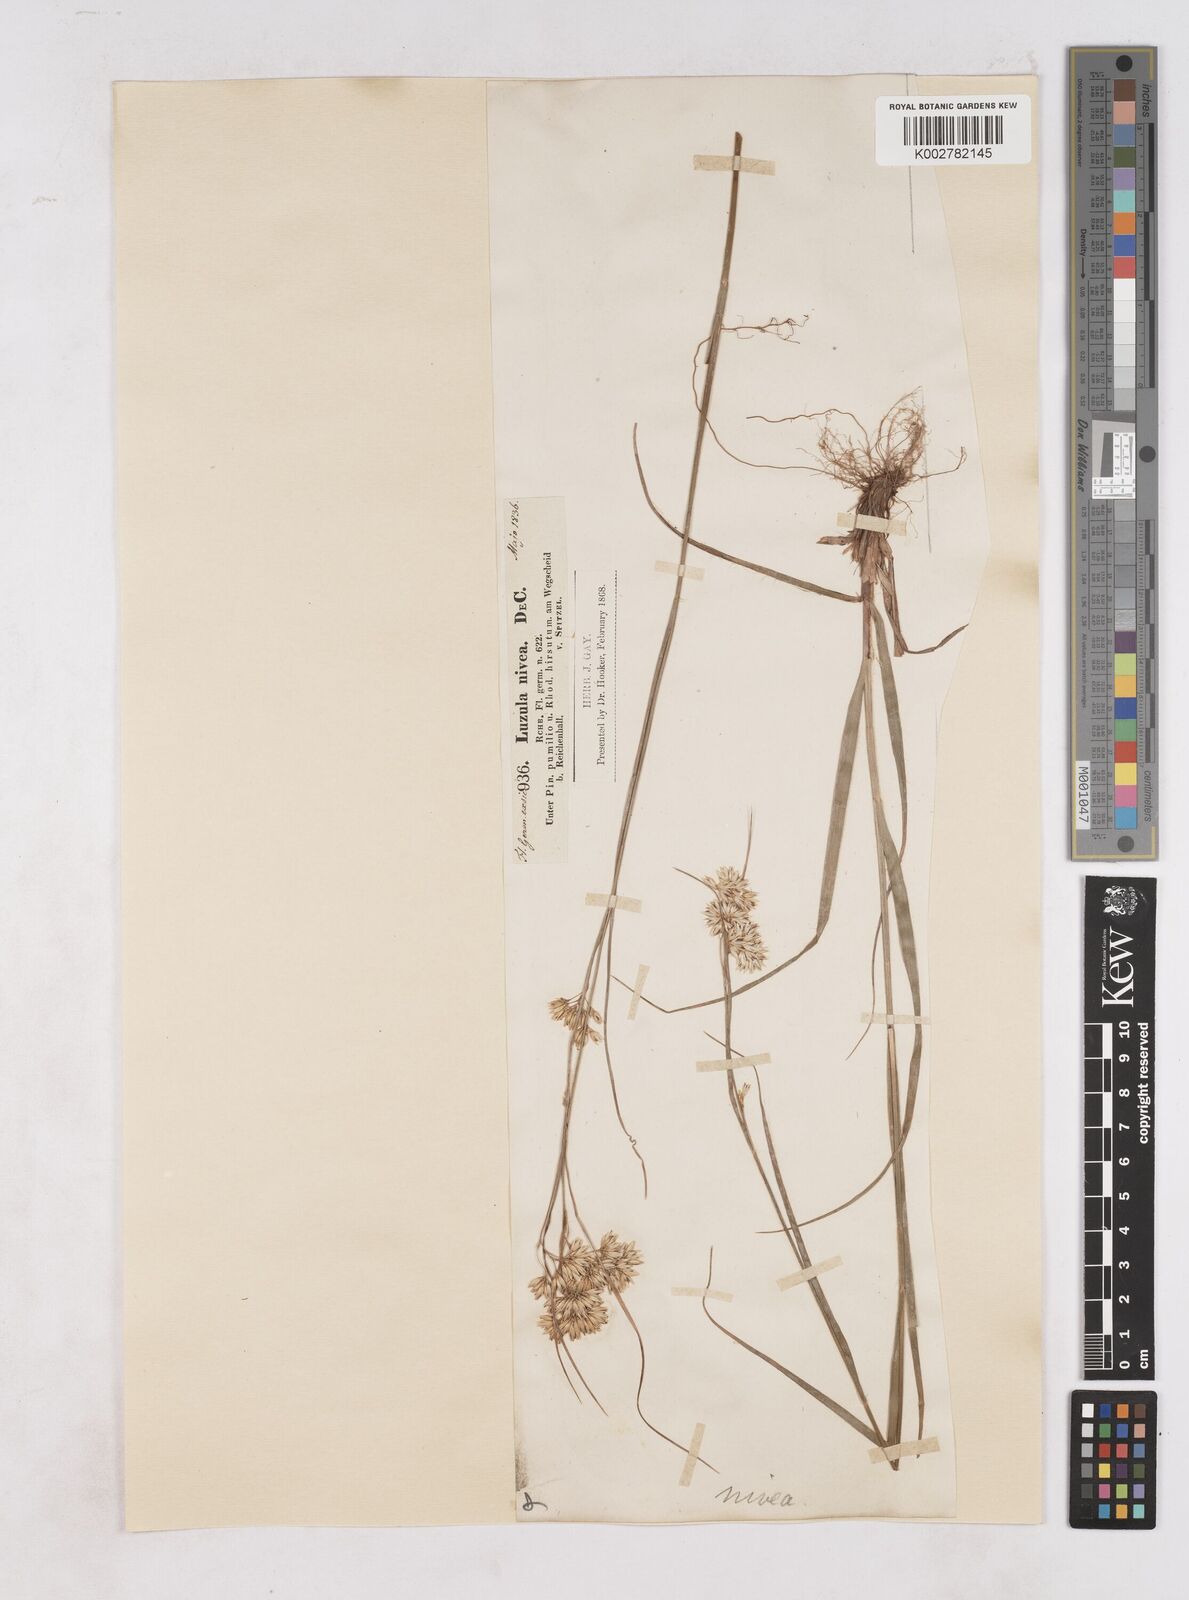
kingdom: Plantae
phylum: Tracheophyta
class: Liliopsida
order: Poales
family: Juncaceae
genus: Luzula
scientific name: Luzula nivea
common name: Snow-white wood-rush
